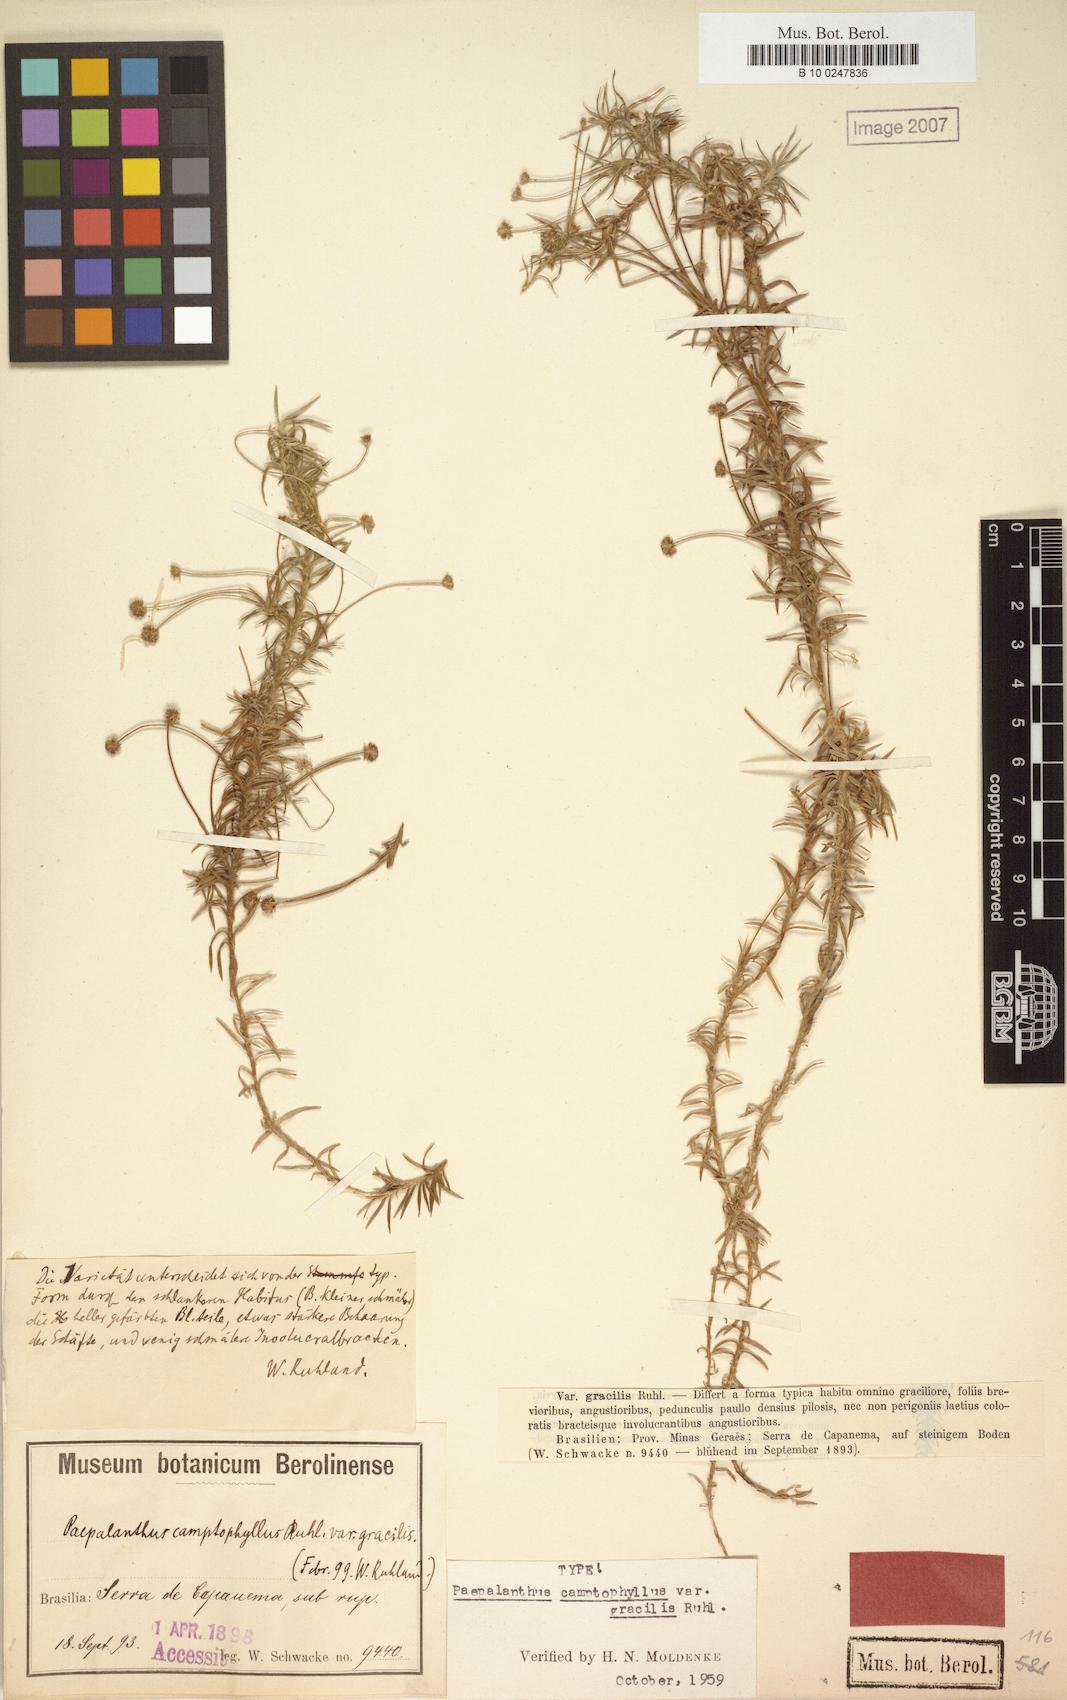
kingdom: Plantae
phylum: Tracheophyta
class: Liliopsida
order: Poales
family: Eriocaulaceae
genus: Paepalanthus
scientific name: Paepalanthus camptophyllus
